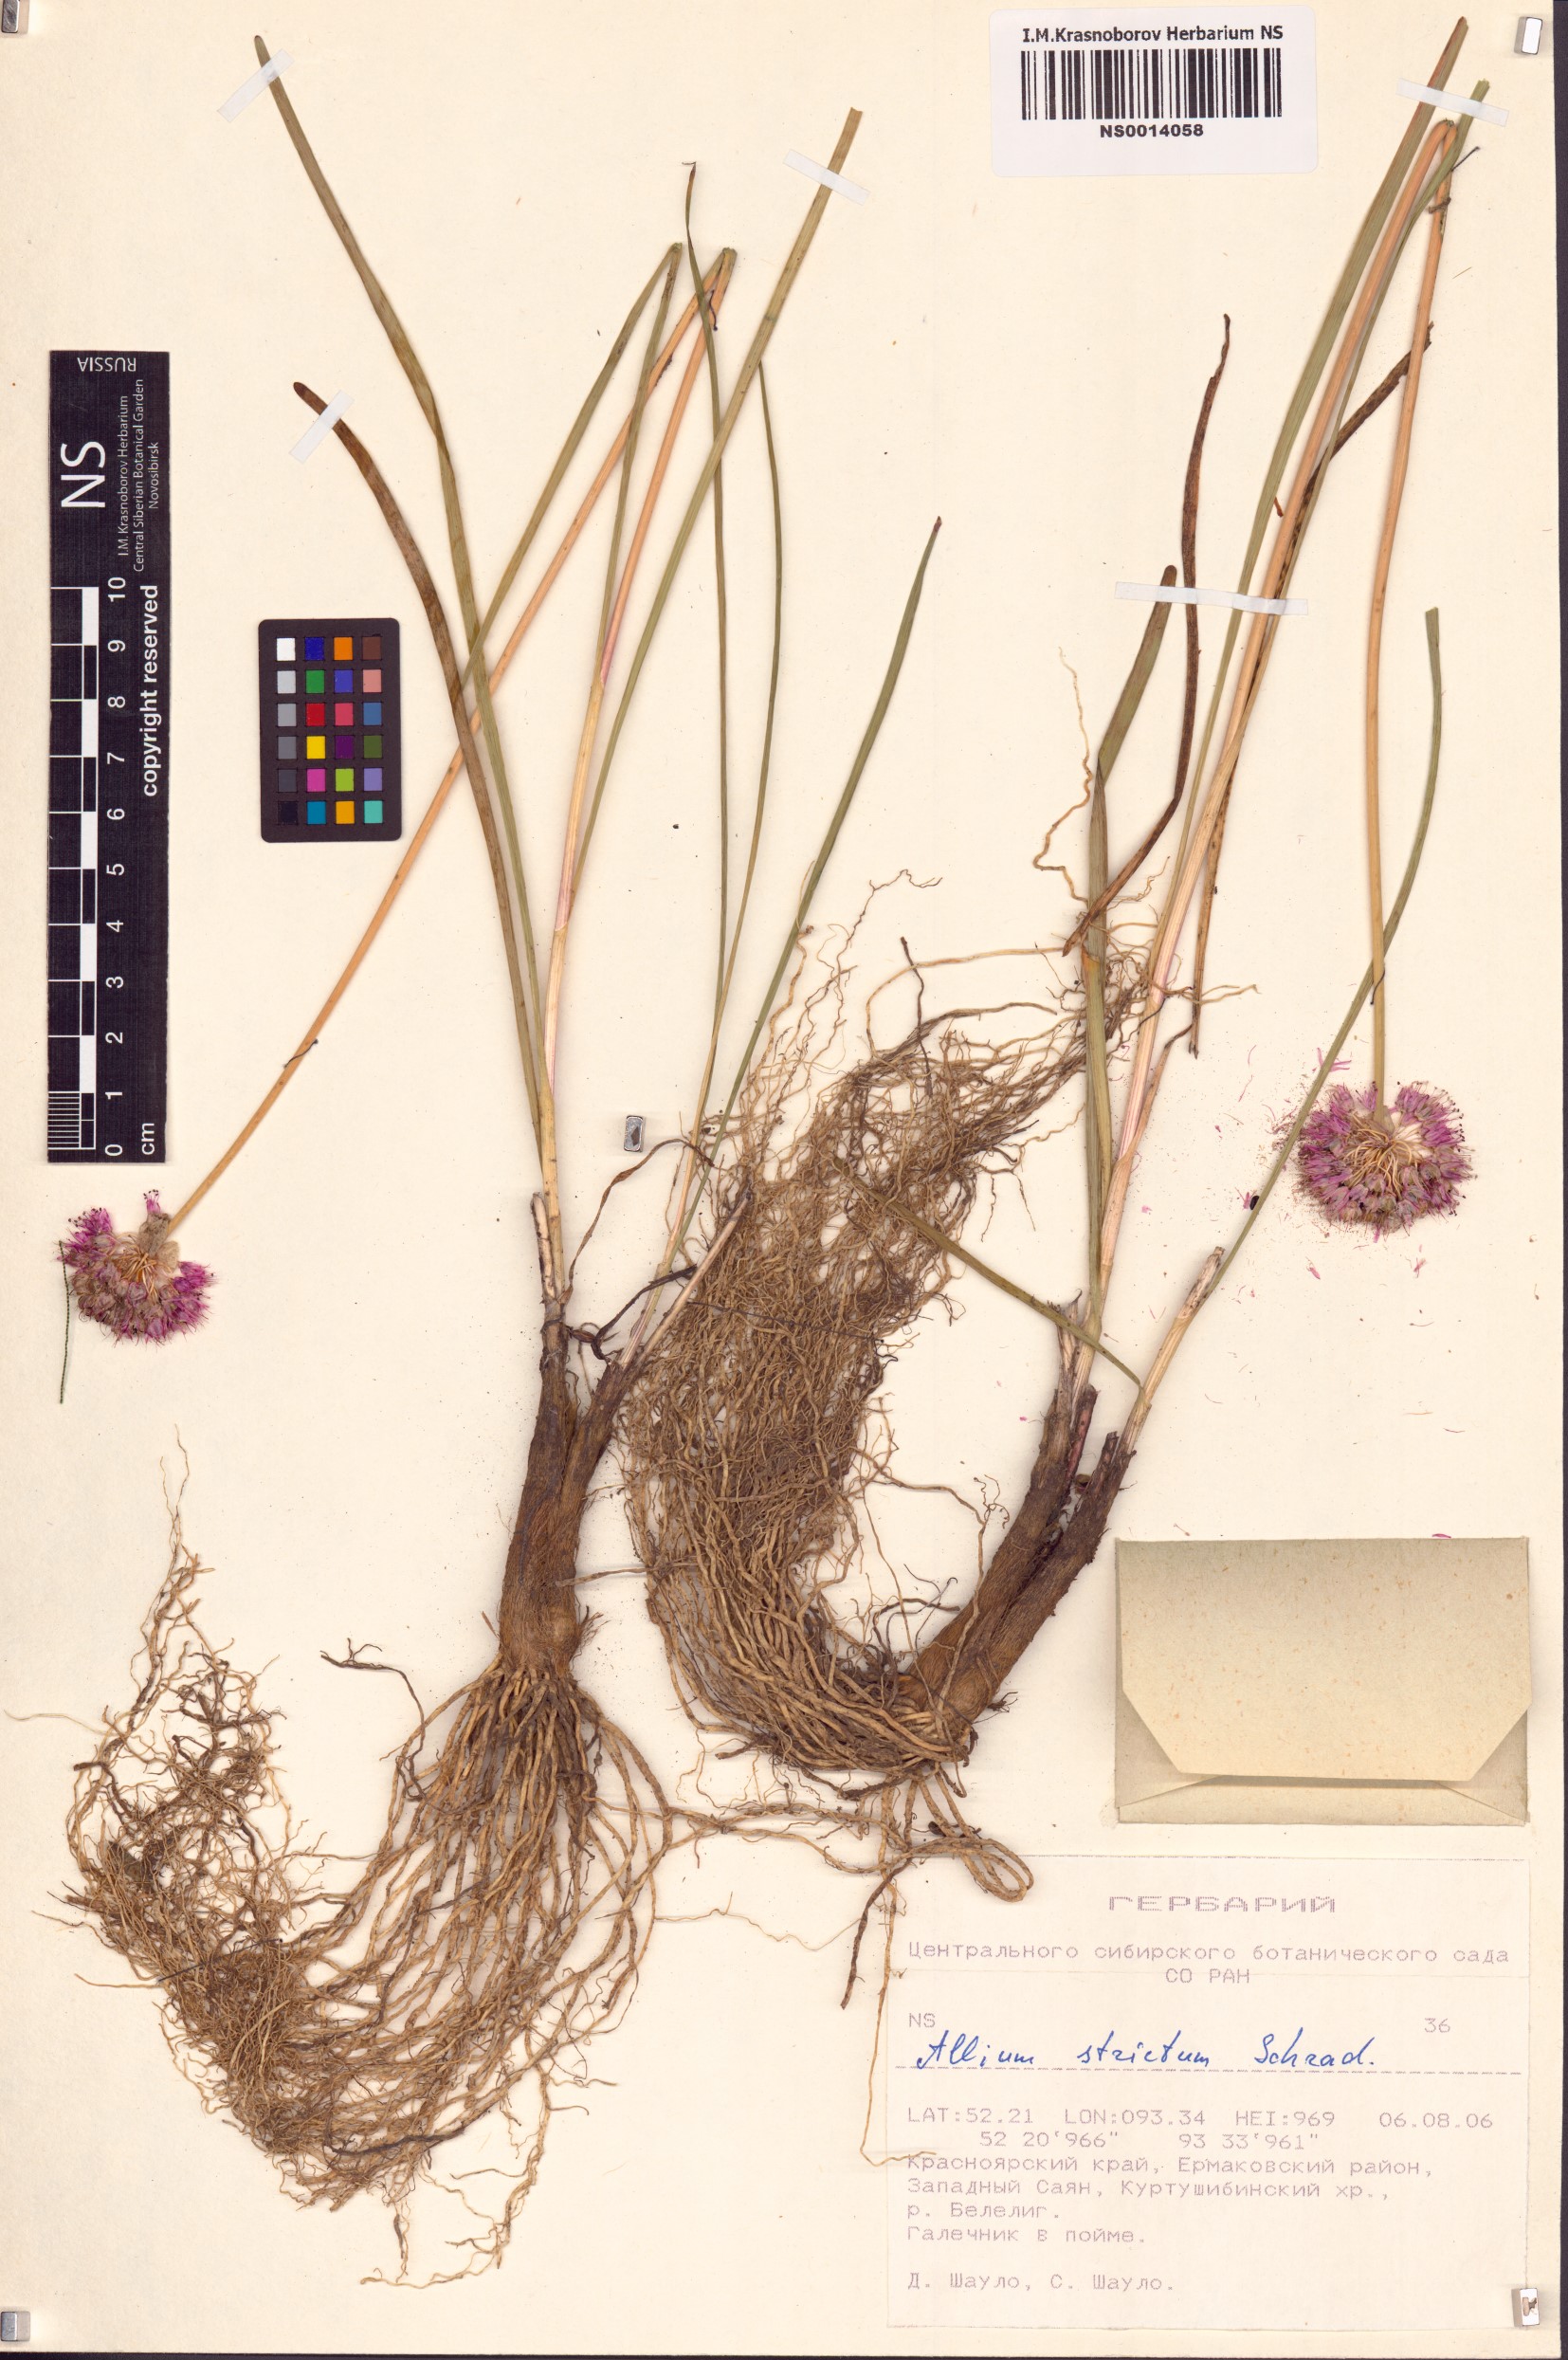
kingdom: Plantae
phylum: Tracheophyta
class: Liliopsida
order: Asparagales
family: Amaryllidaceae
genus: Allium
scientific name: Allium strictum
